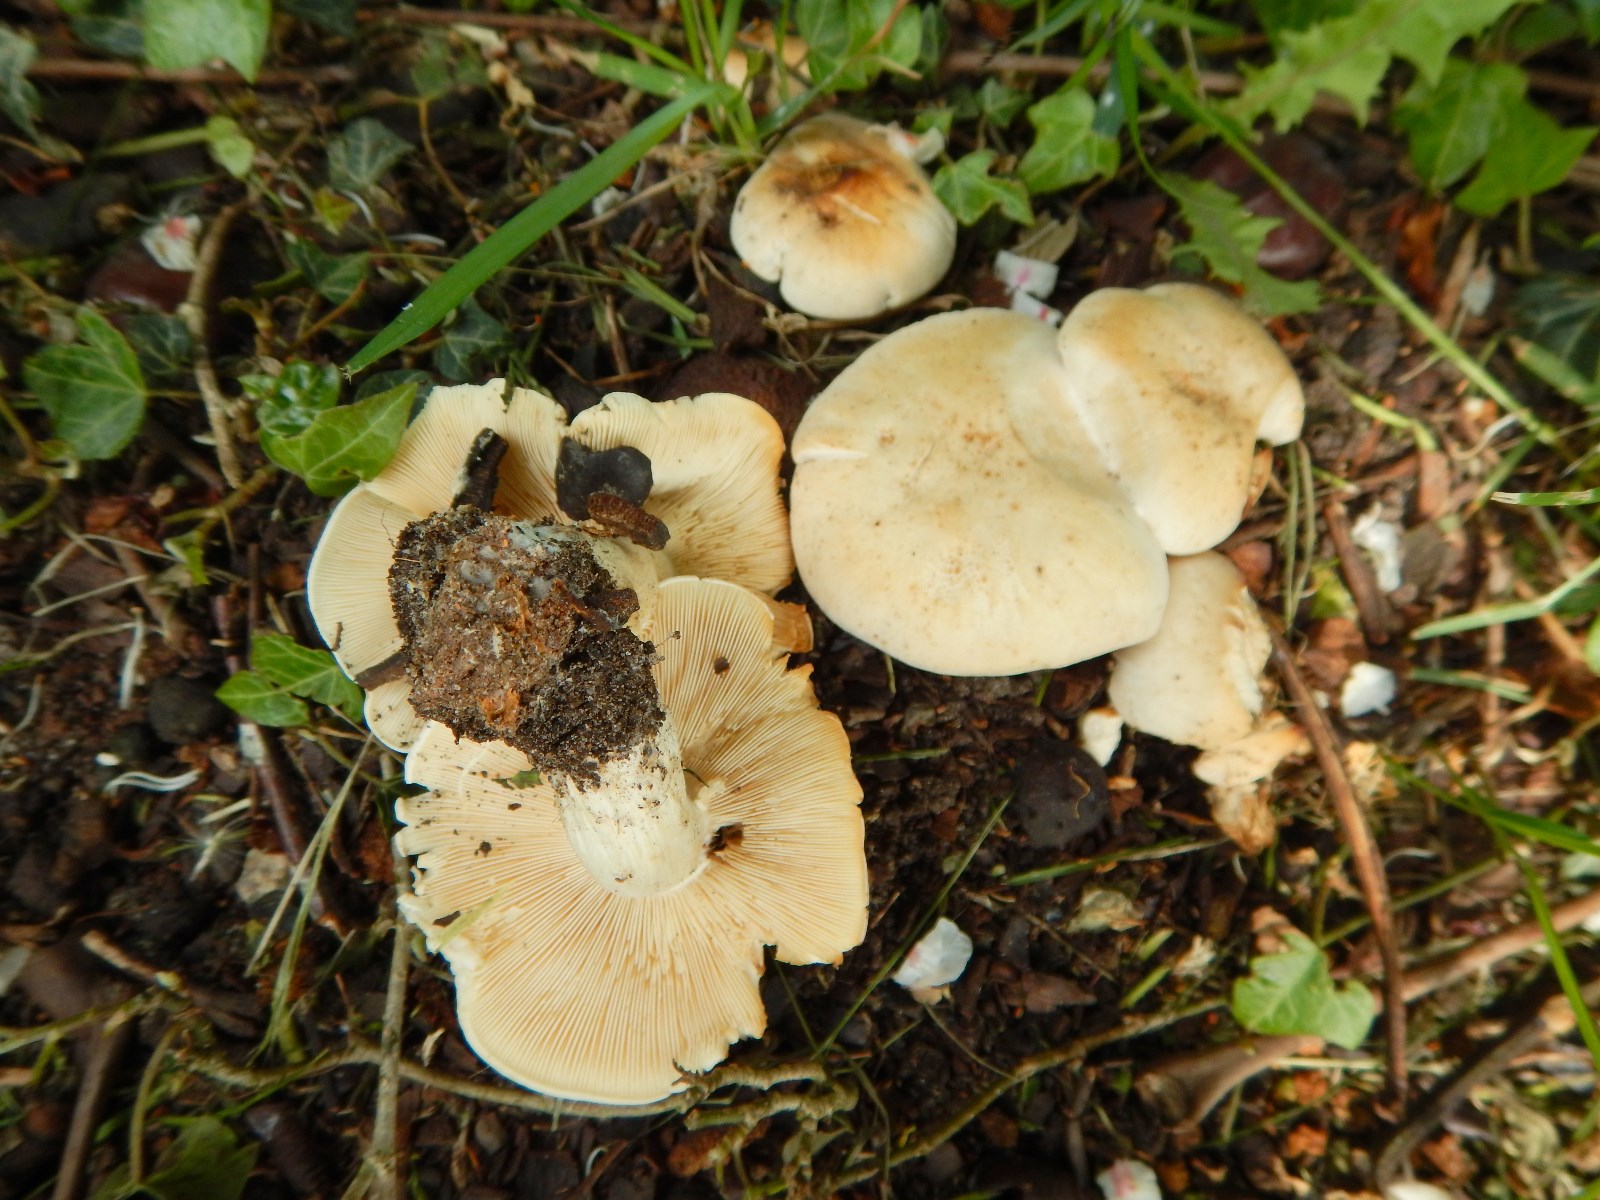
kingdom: Fungi
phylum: Basidiomycota
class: Agaricomycetes
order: Agaricales
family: Lyophyllaceae
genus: Calocybe
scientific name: Calocybe gambosa
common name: vårmusseron
